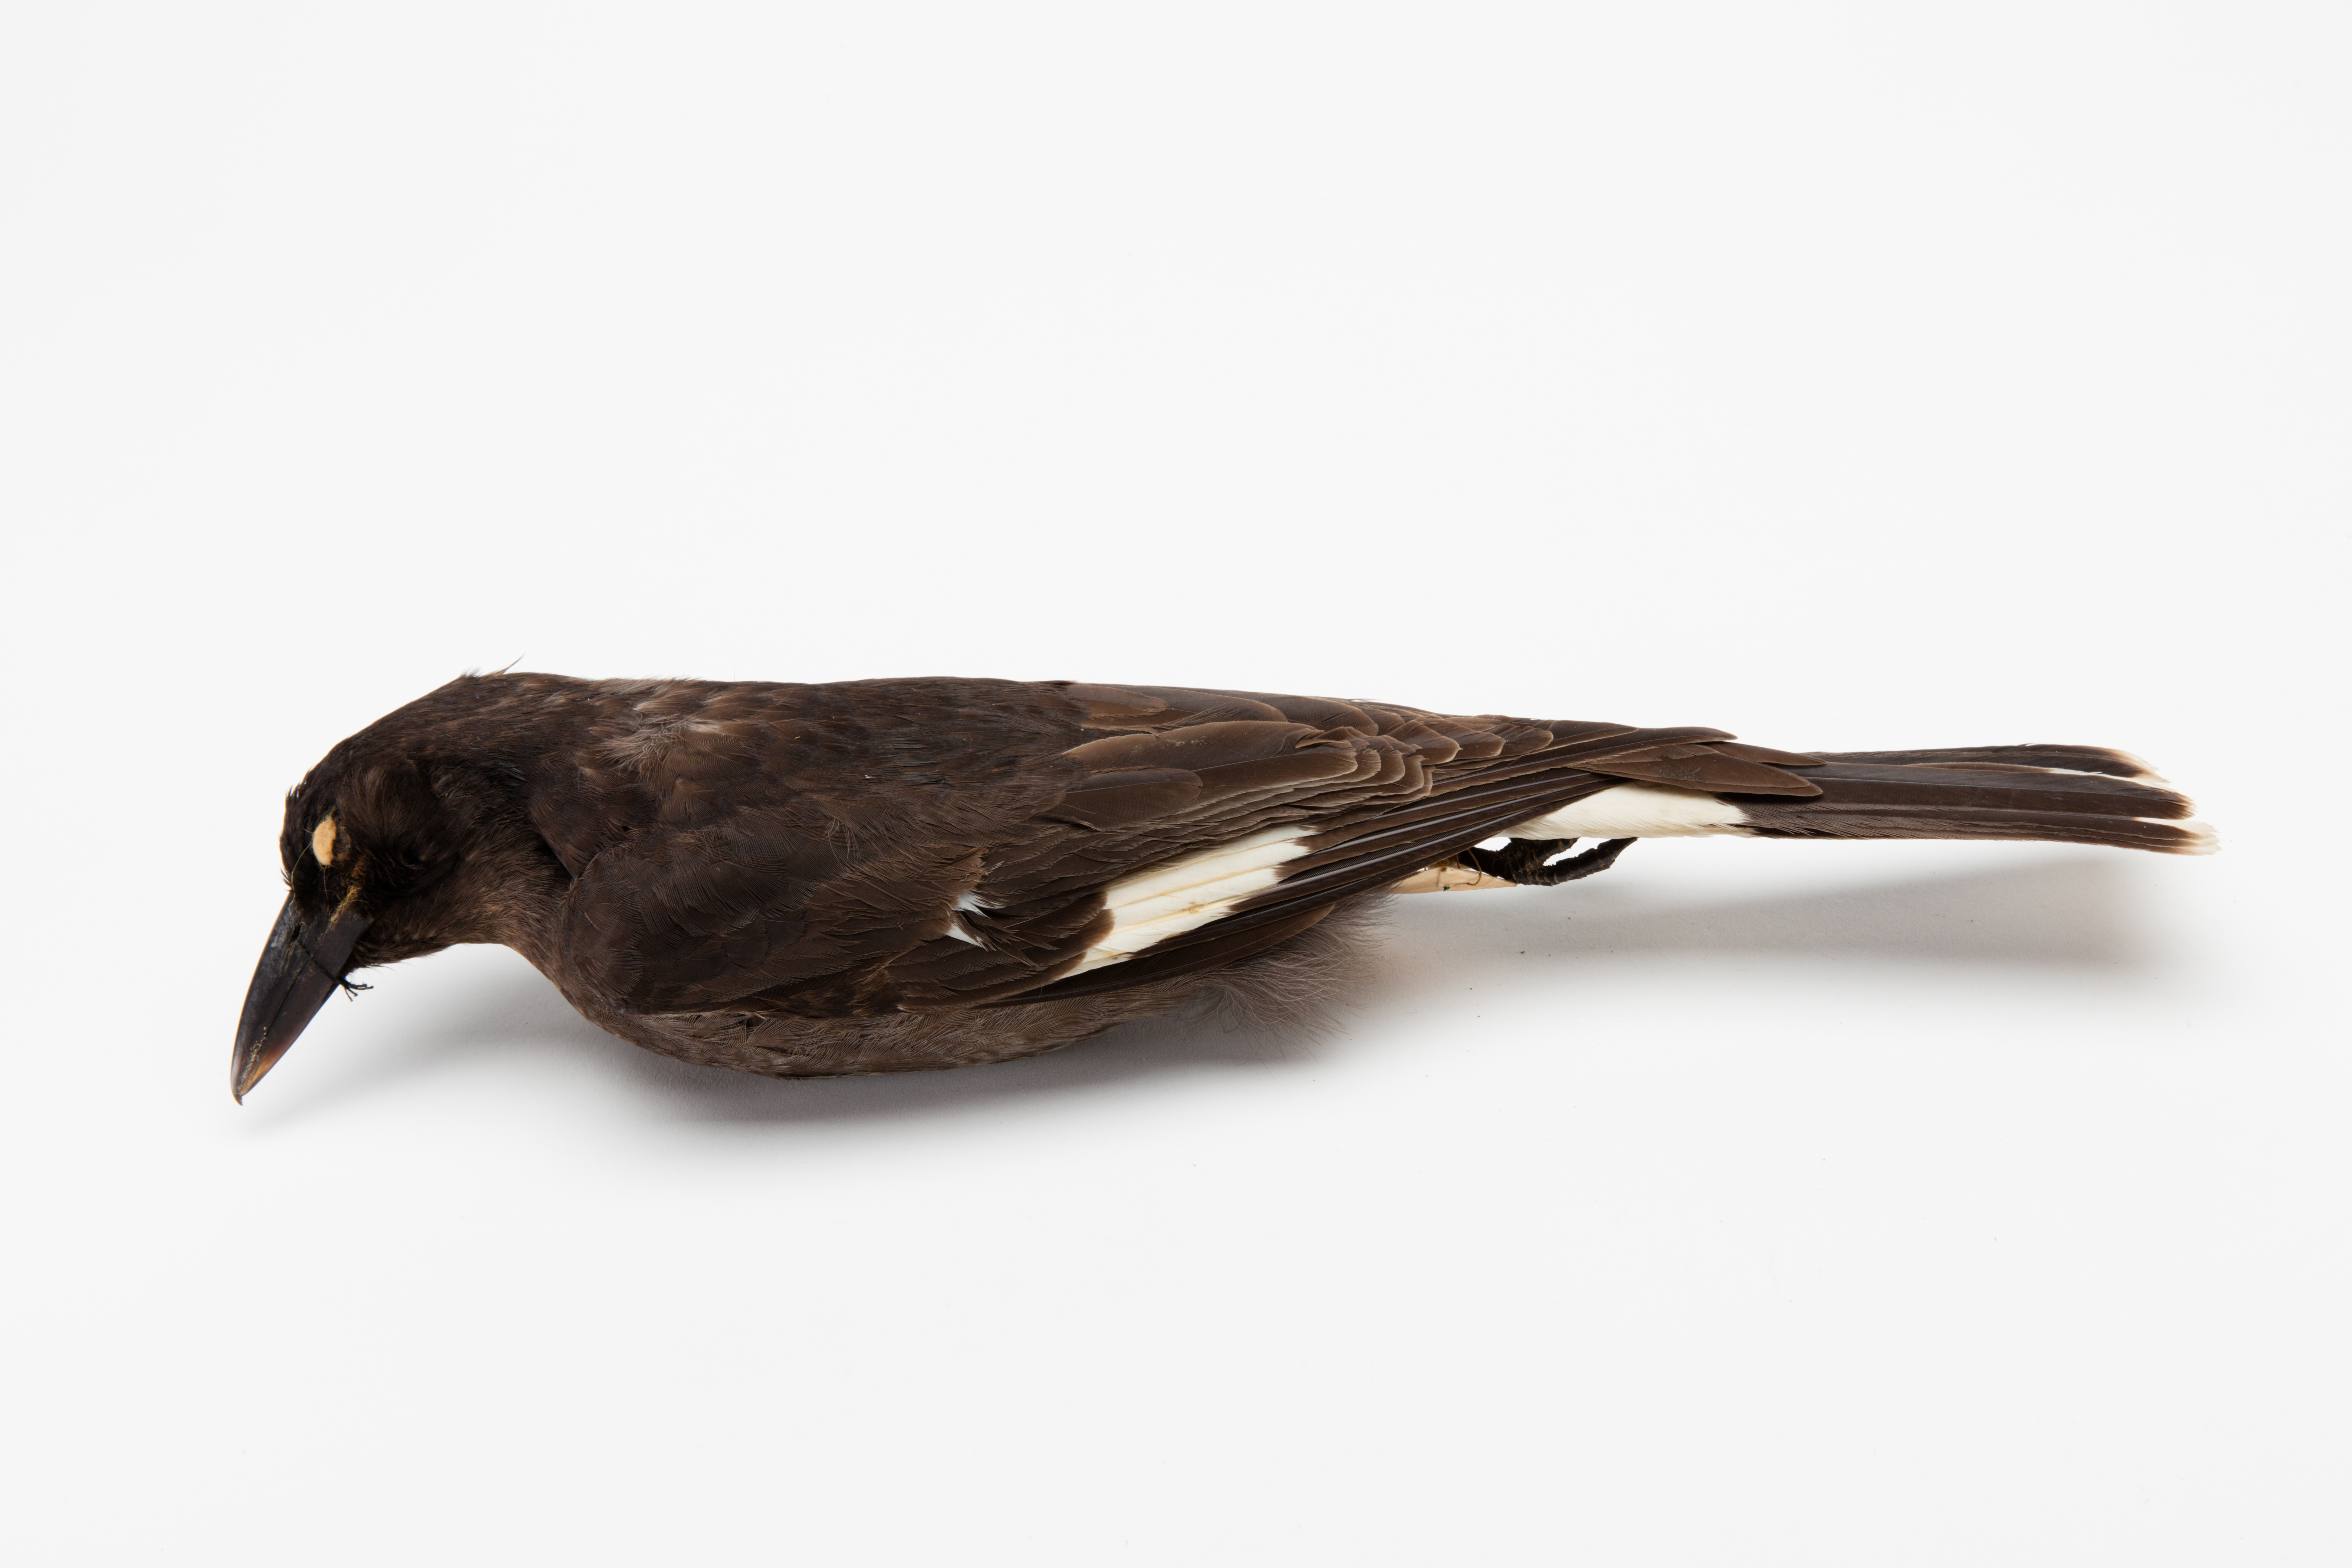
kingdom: Animalia
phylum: Chordata
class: Aves
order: Passeriformes
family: Cracticidae
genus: Strepera
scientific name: Strepera graculina
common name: Pied currawong
